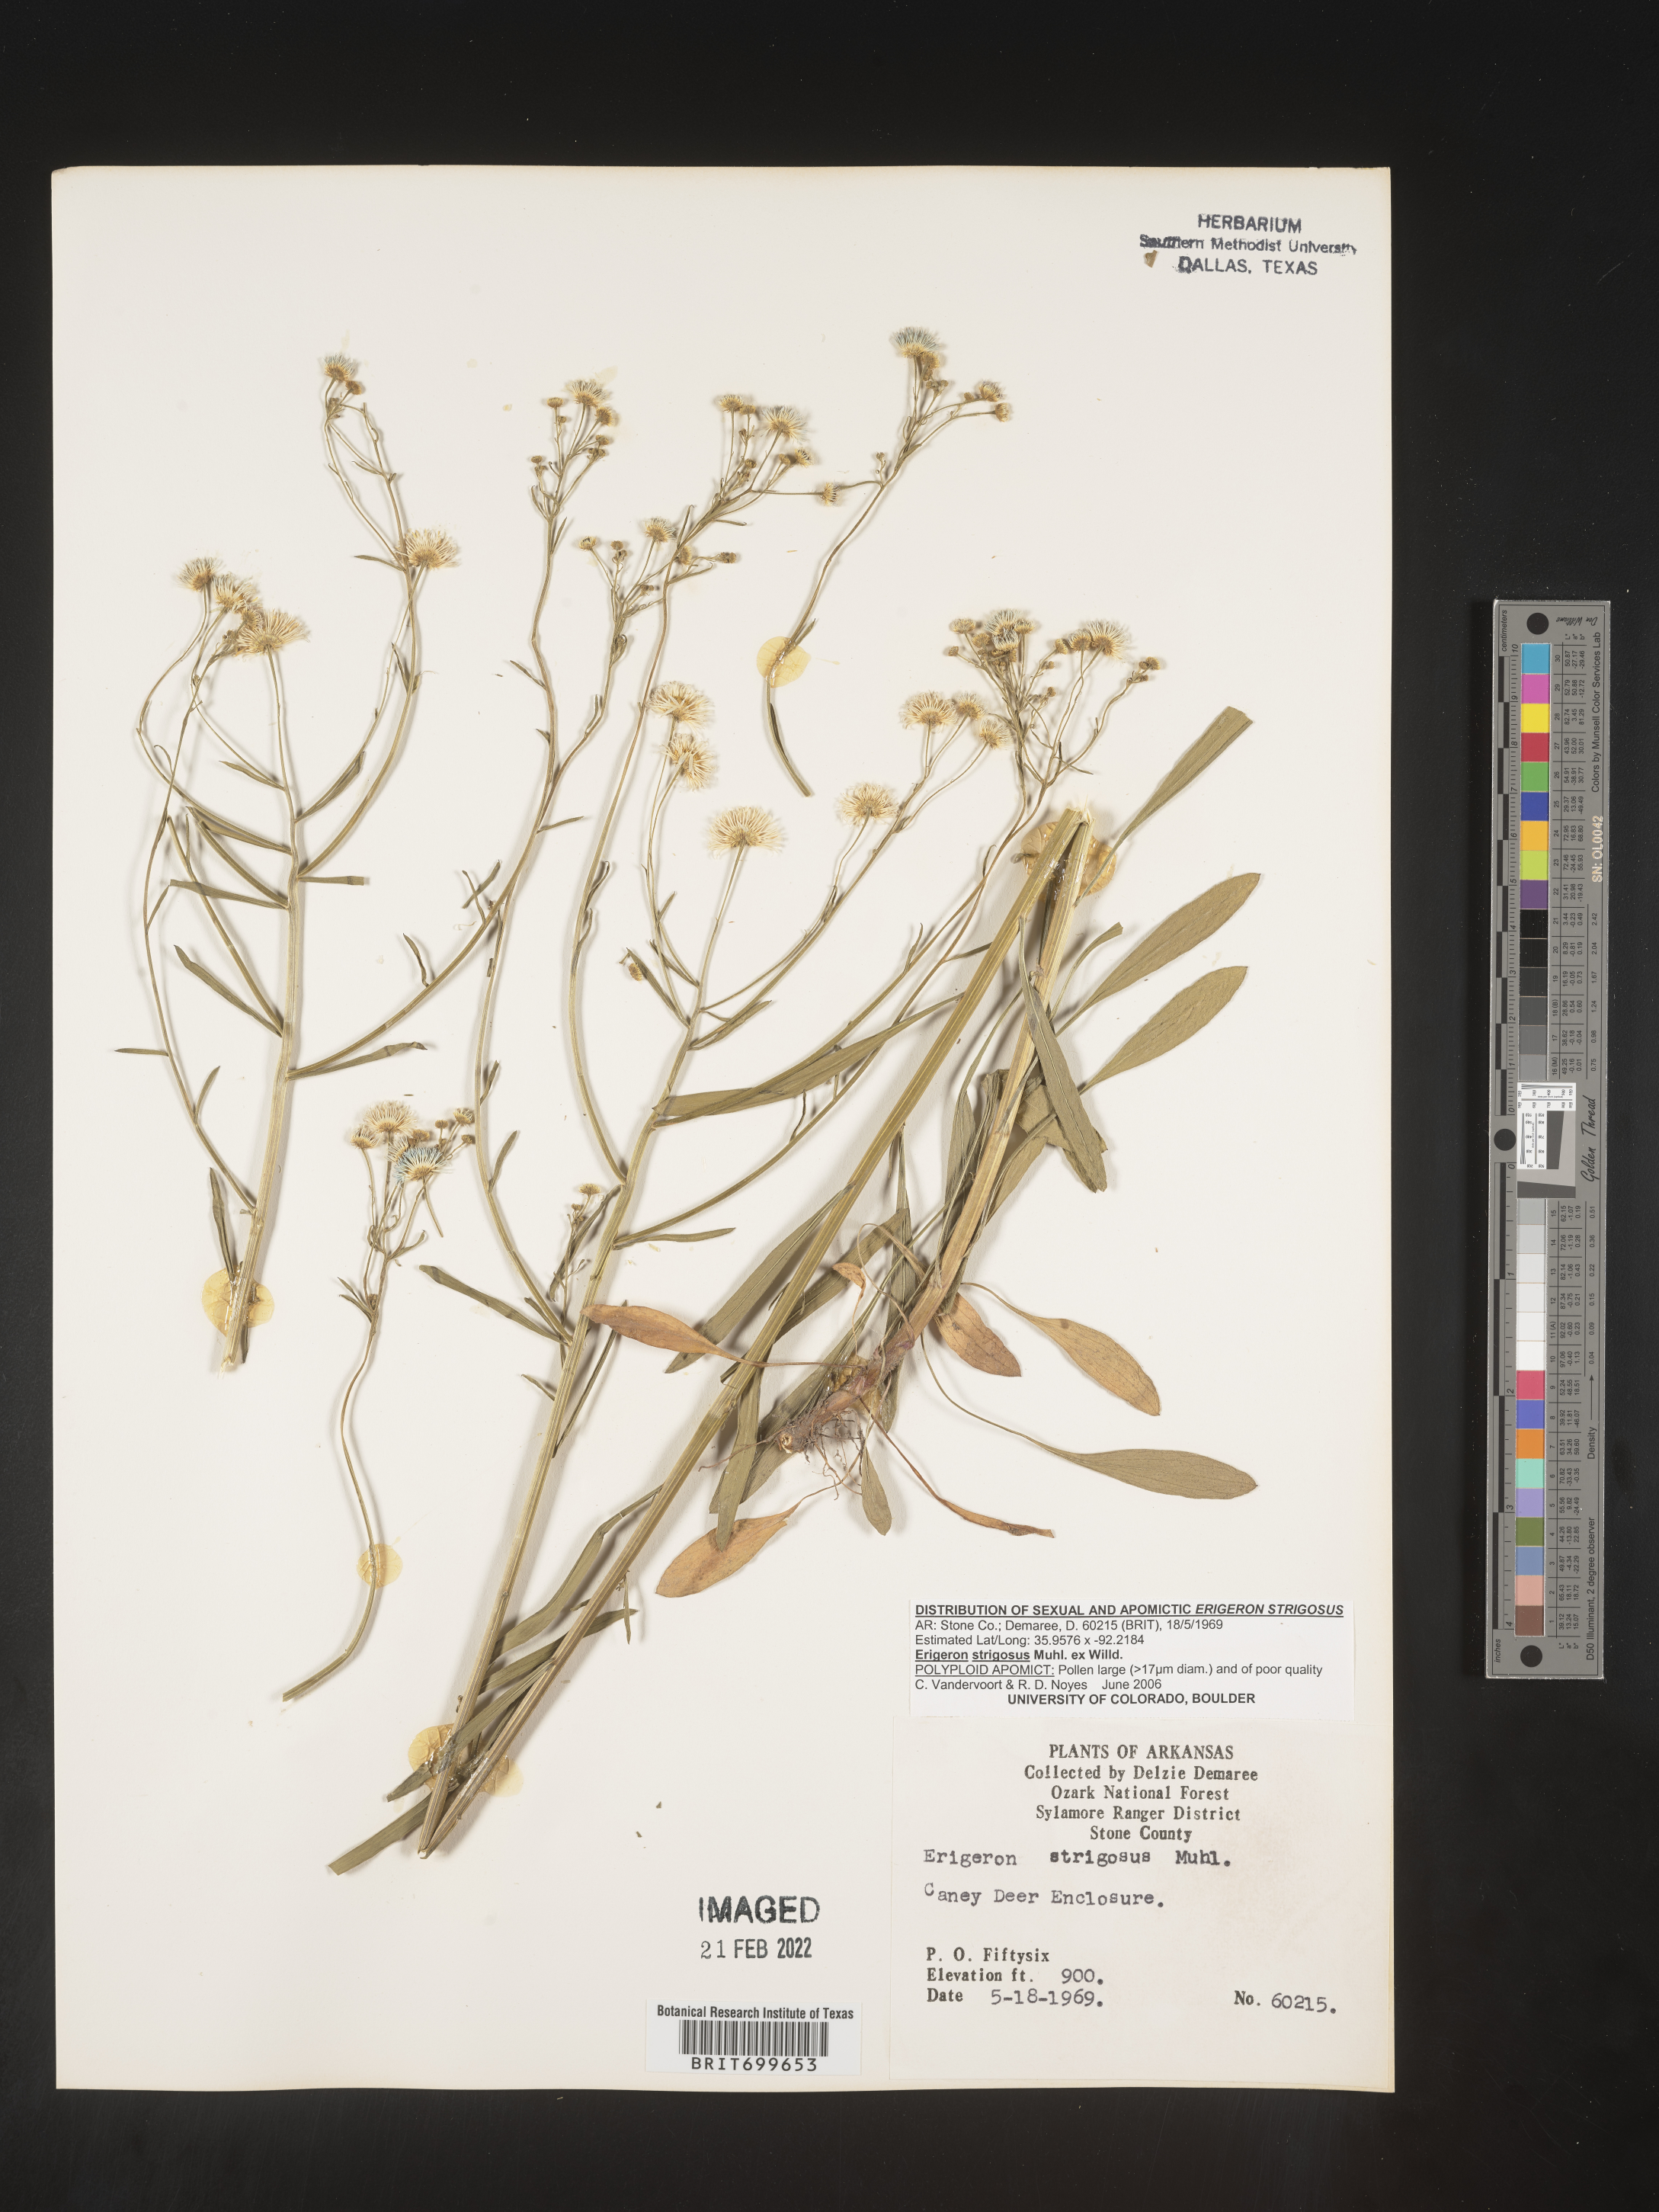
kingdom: Plantae
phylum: Tracheophyta
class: Magnoliopsida
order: Asterales
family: Asteraceae
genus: Erigeron
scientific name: Erigeron strigosus
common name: Common eastern fleabane
